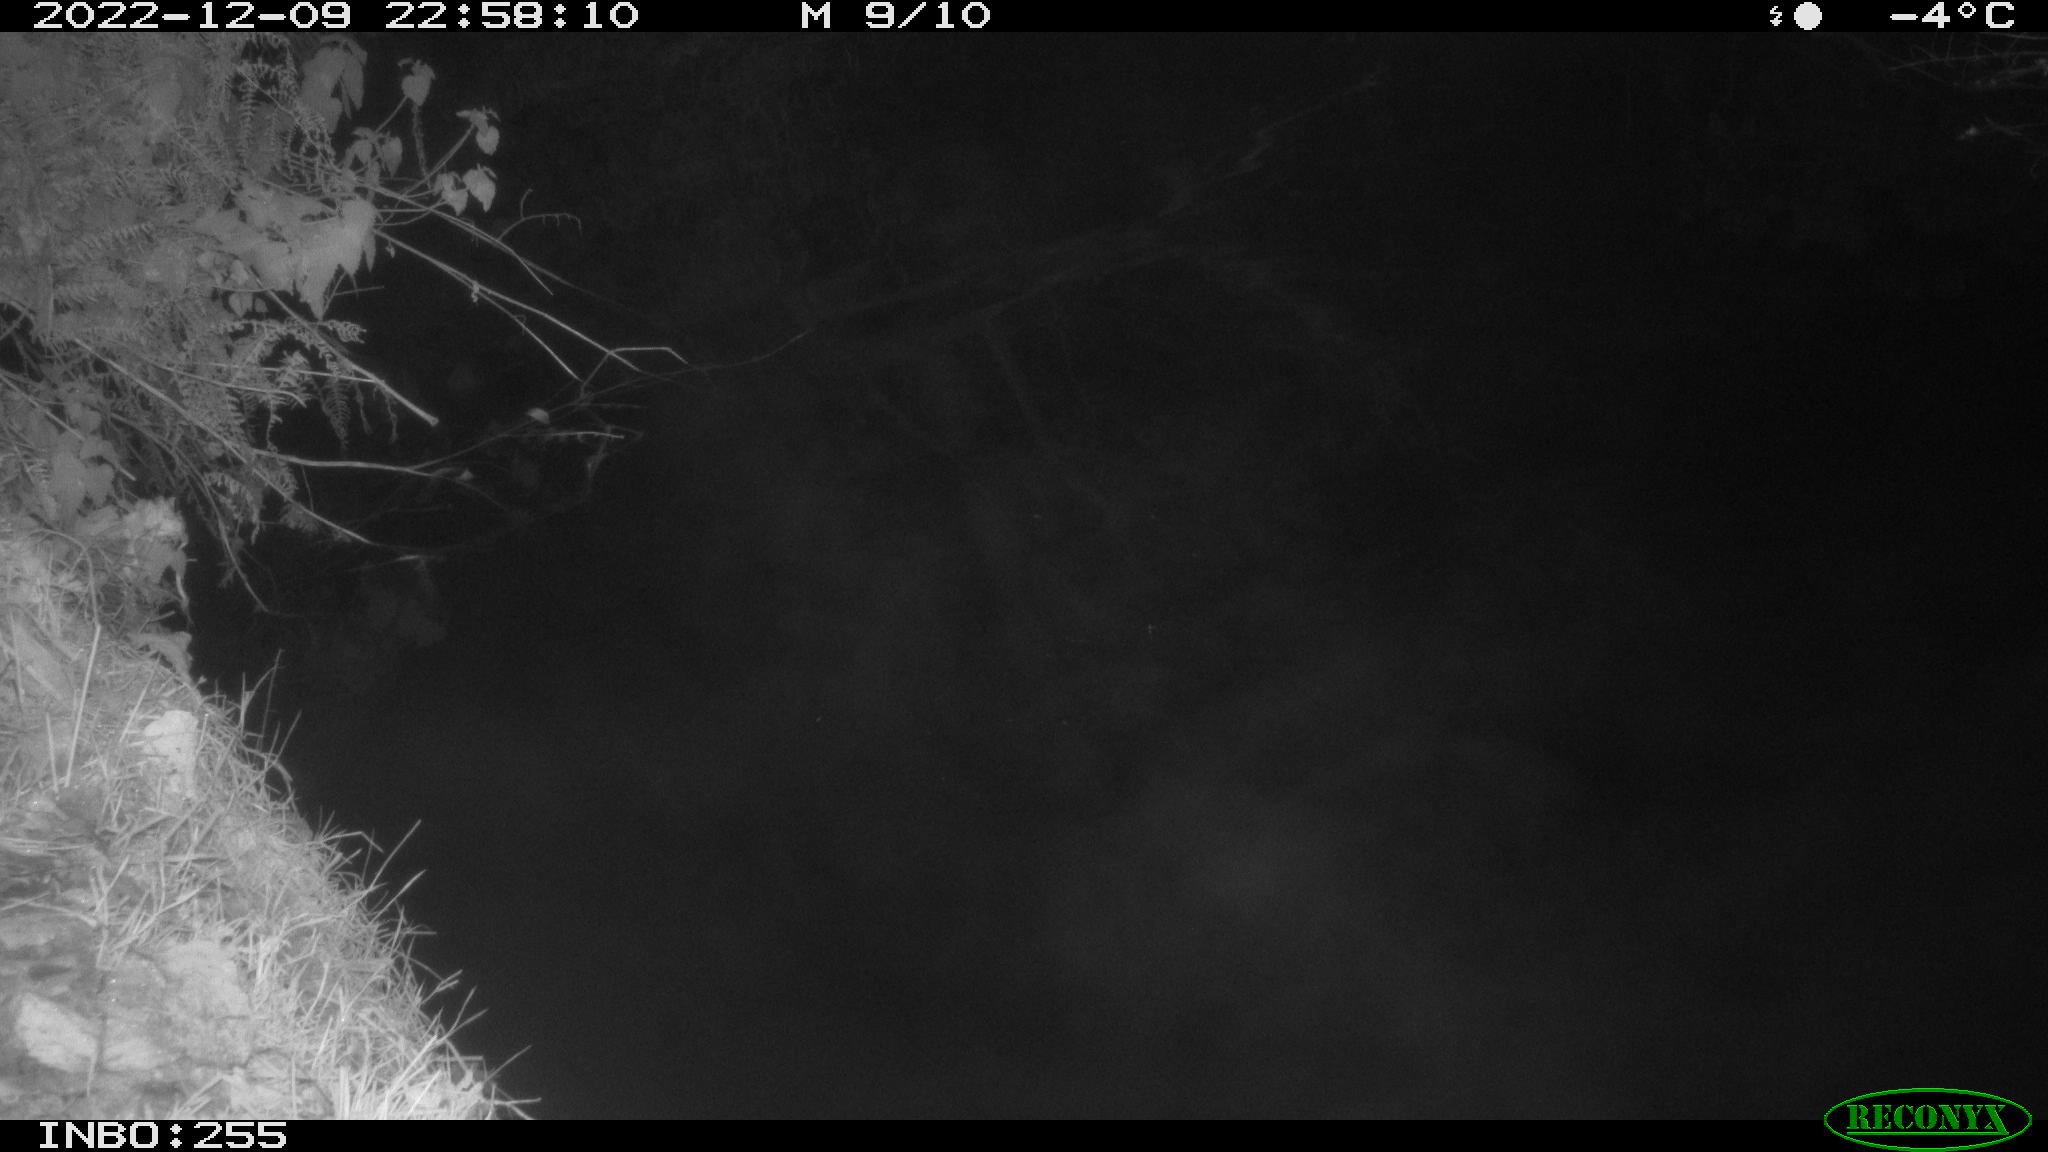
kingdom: Animalia
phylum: Chordata
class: Aves
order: Anseriformes
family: Anatidae
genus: Anas
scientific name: Anas
